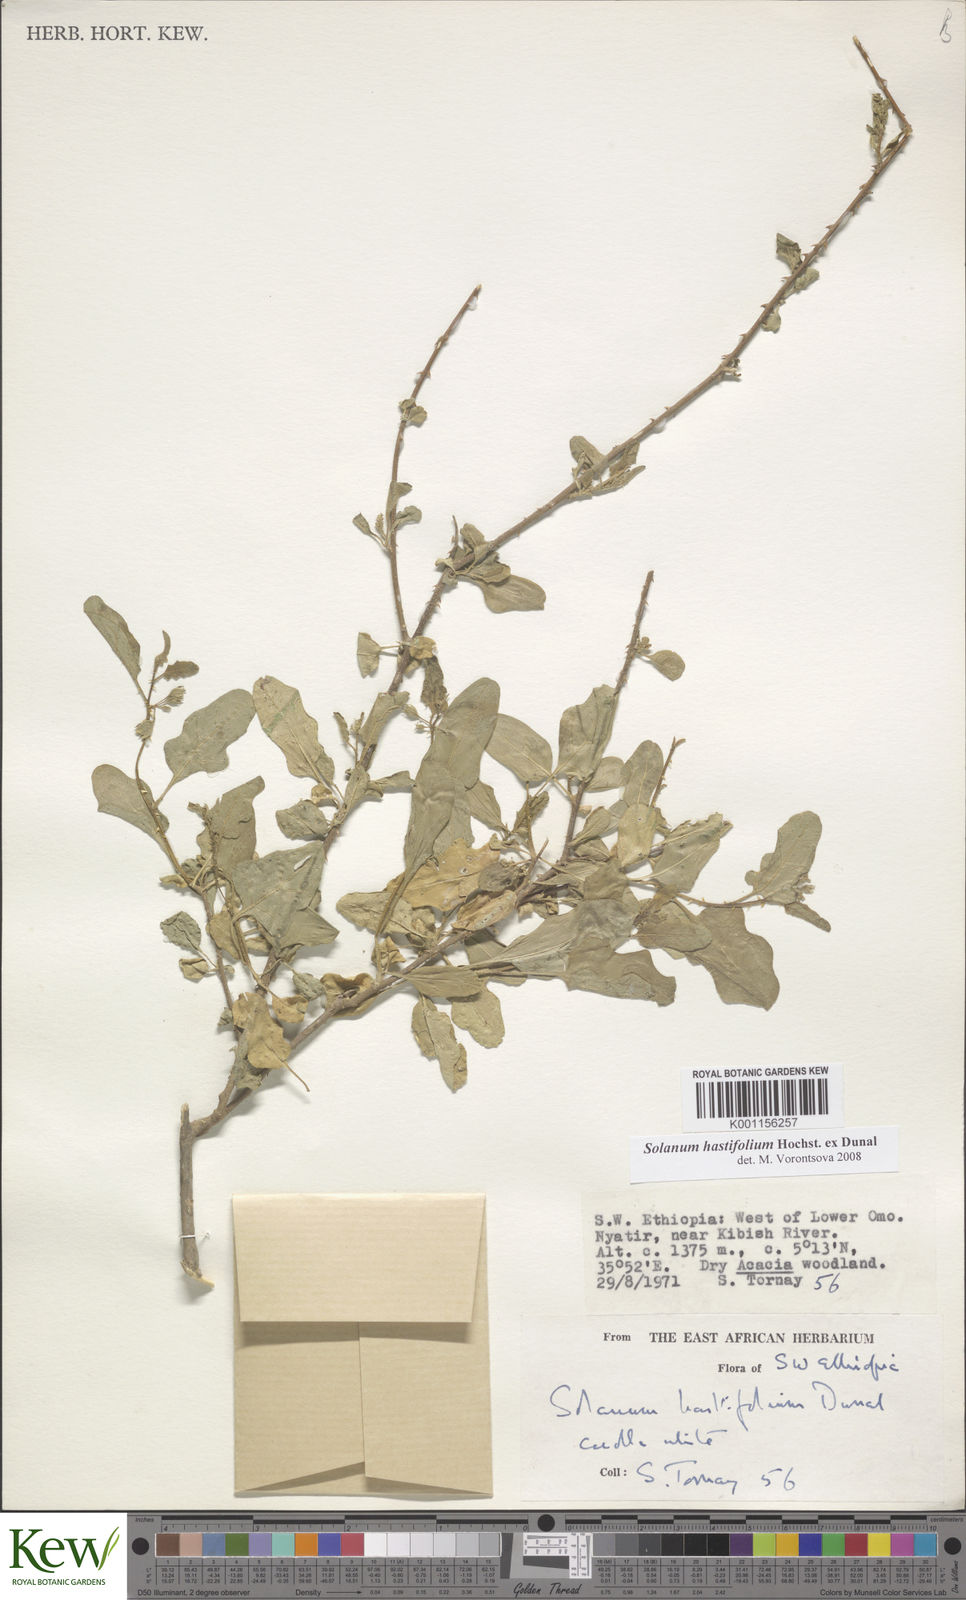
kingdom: Plantae
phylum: Tracheophyta
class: Magnoliopsida
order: Solanales
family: Solanaceae
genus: Solanum
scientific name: Solanum hastifolium
